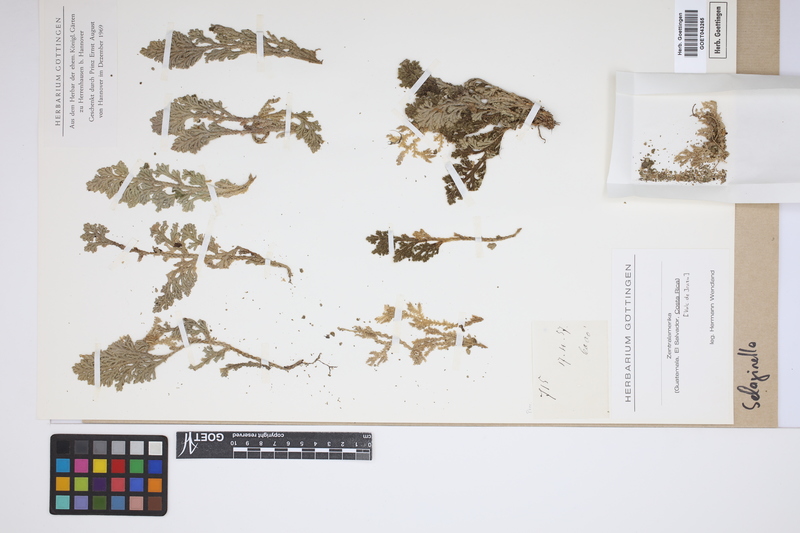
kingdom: Plantae
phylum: Tracheophyta
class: Lycopodiopsida
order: Selaginellales
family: Selaginellaceae
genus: Selaginella
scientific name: Selaginella
